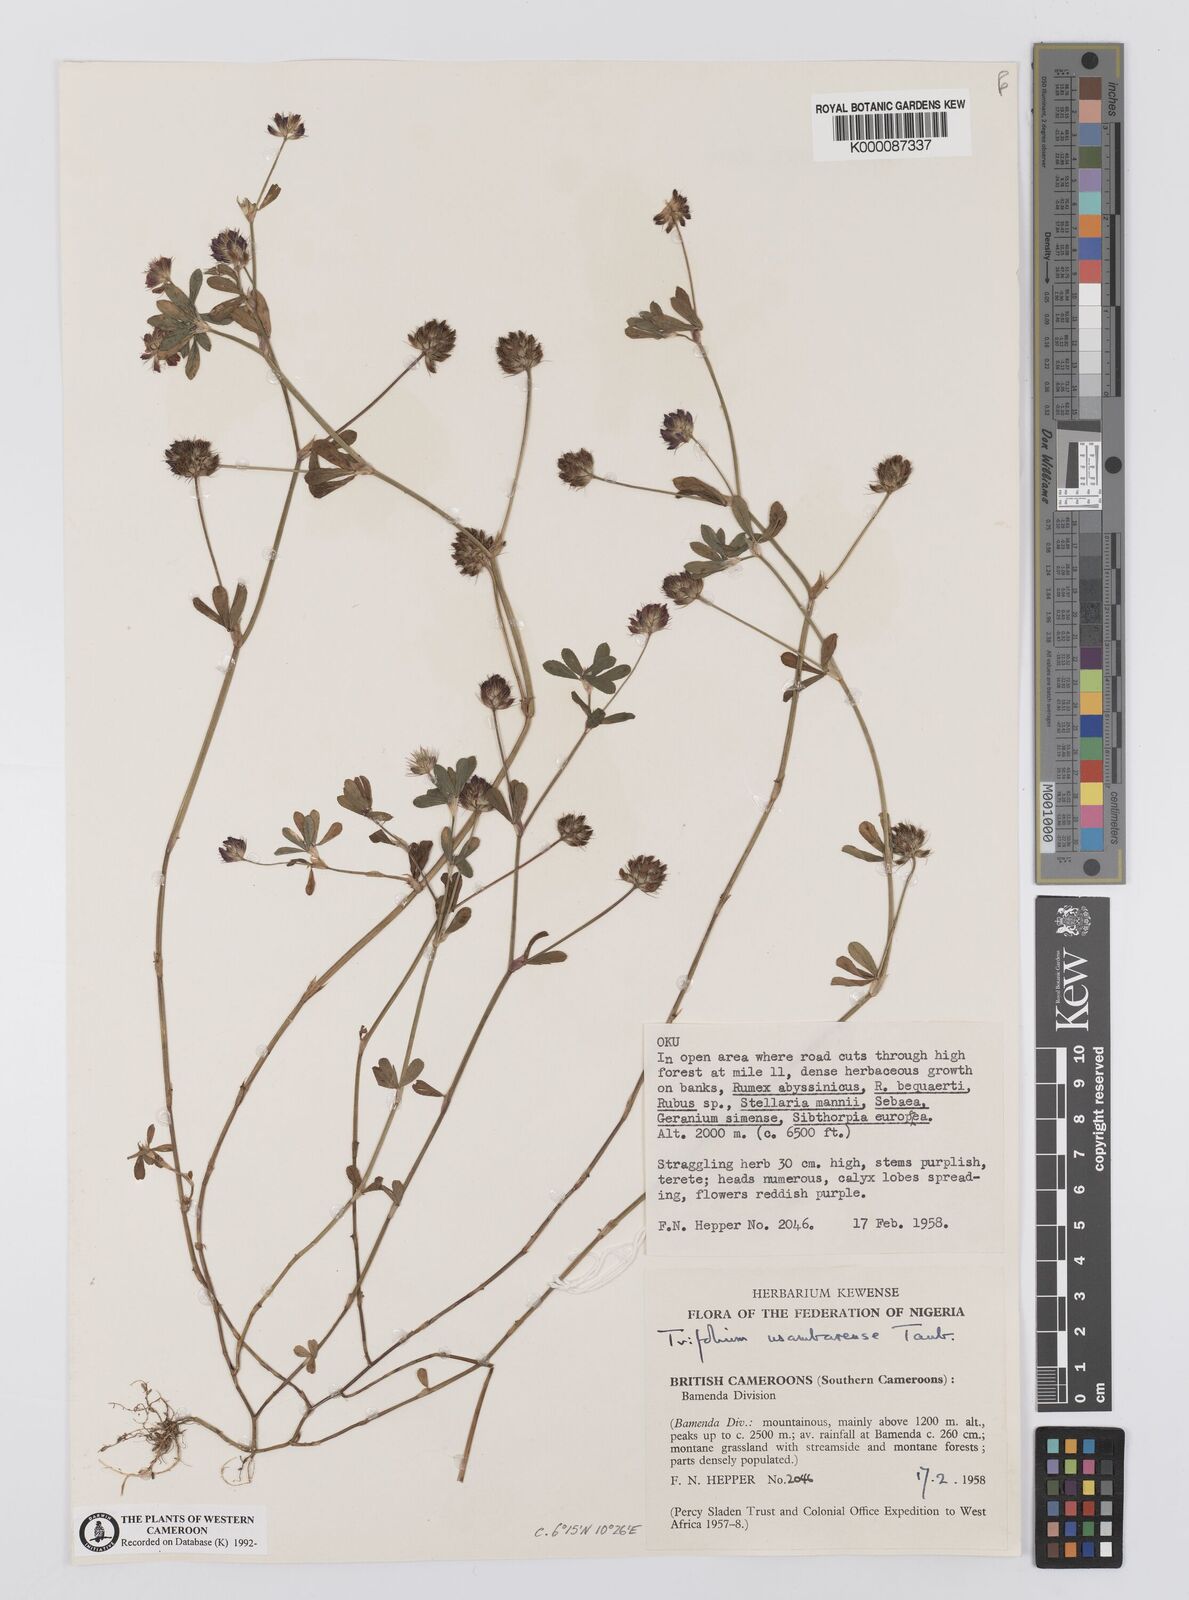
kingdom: Plantae
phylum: Tracheophyta
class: Magnoliopsida
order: Fabales
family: Fabaceae
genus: Trifolium
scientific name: Trifolium usambarense
